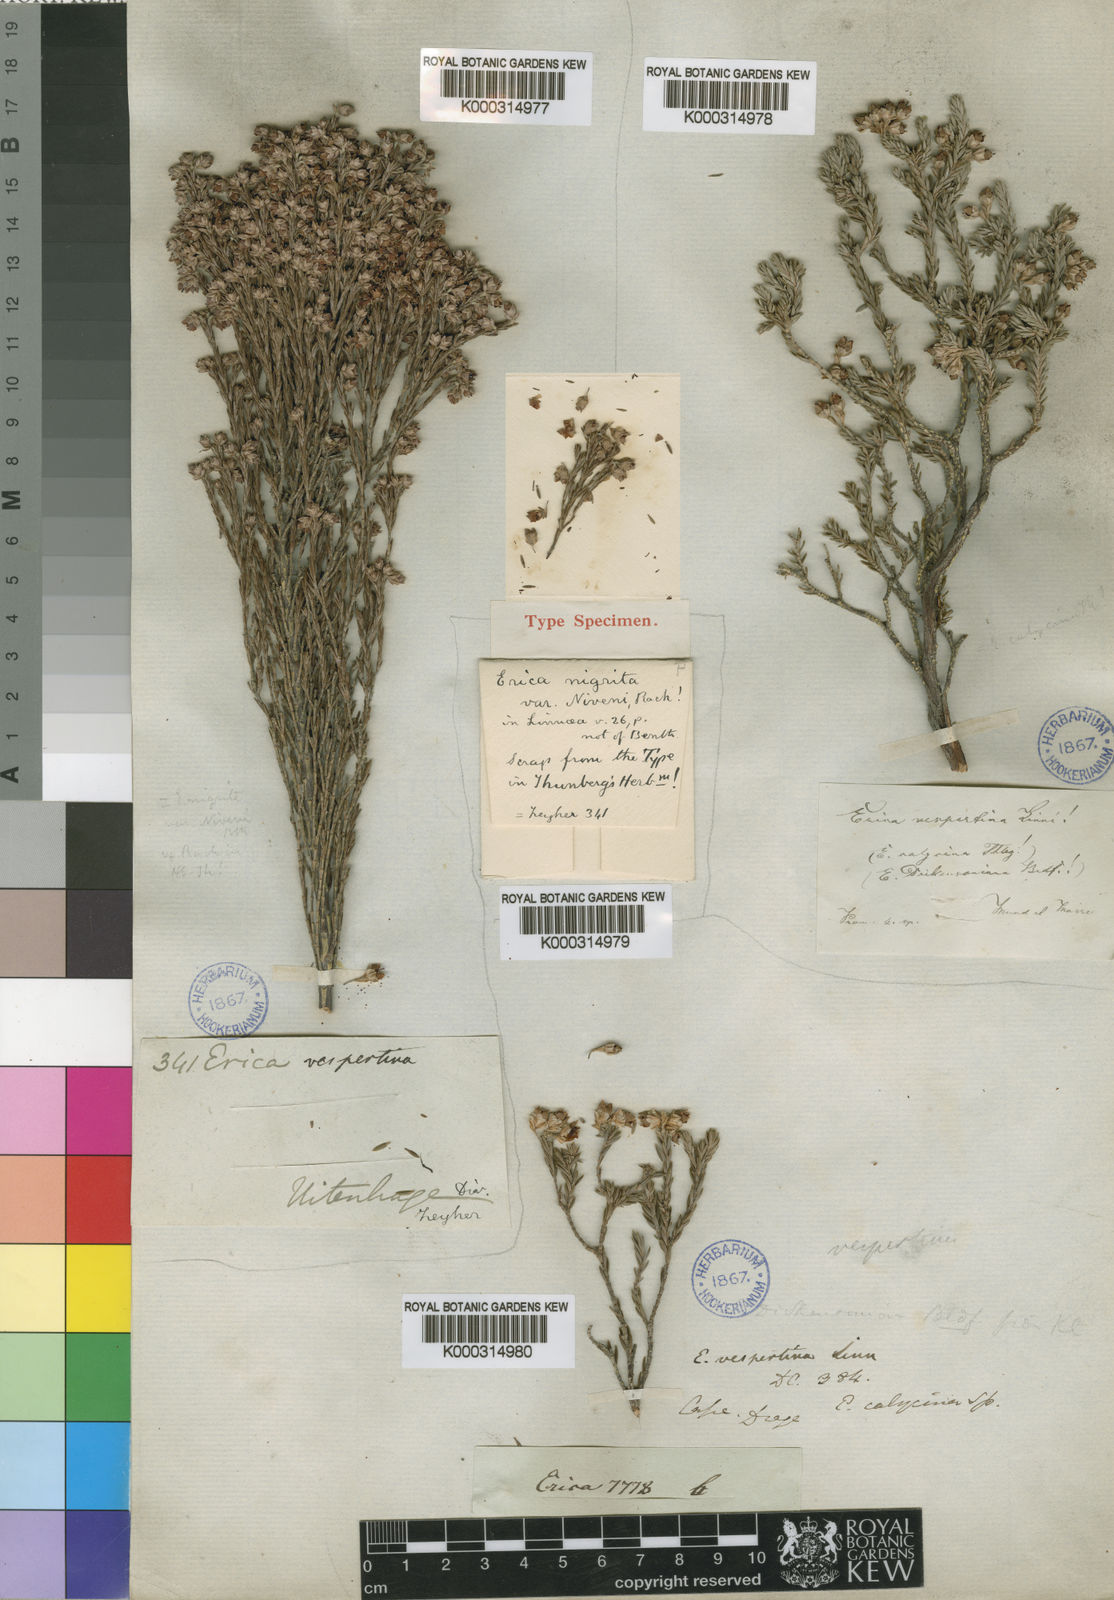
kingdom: Plantae
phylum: Tracheophyta
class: Magnoliopsida
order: Ericales
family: Ericaceae
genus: Erica
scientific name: Erica calycina
